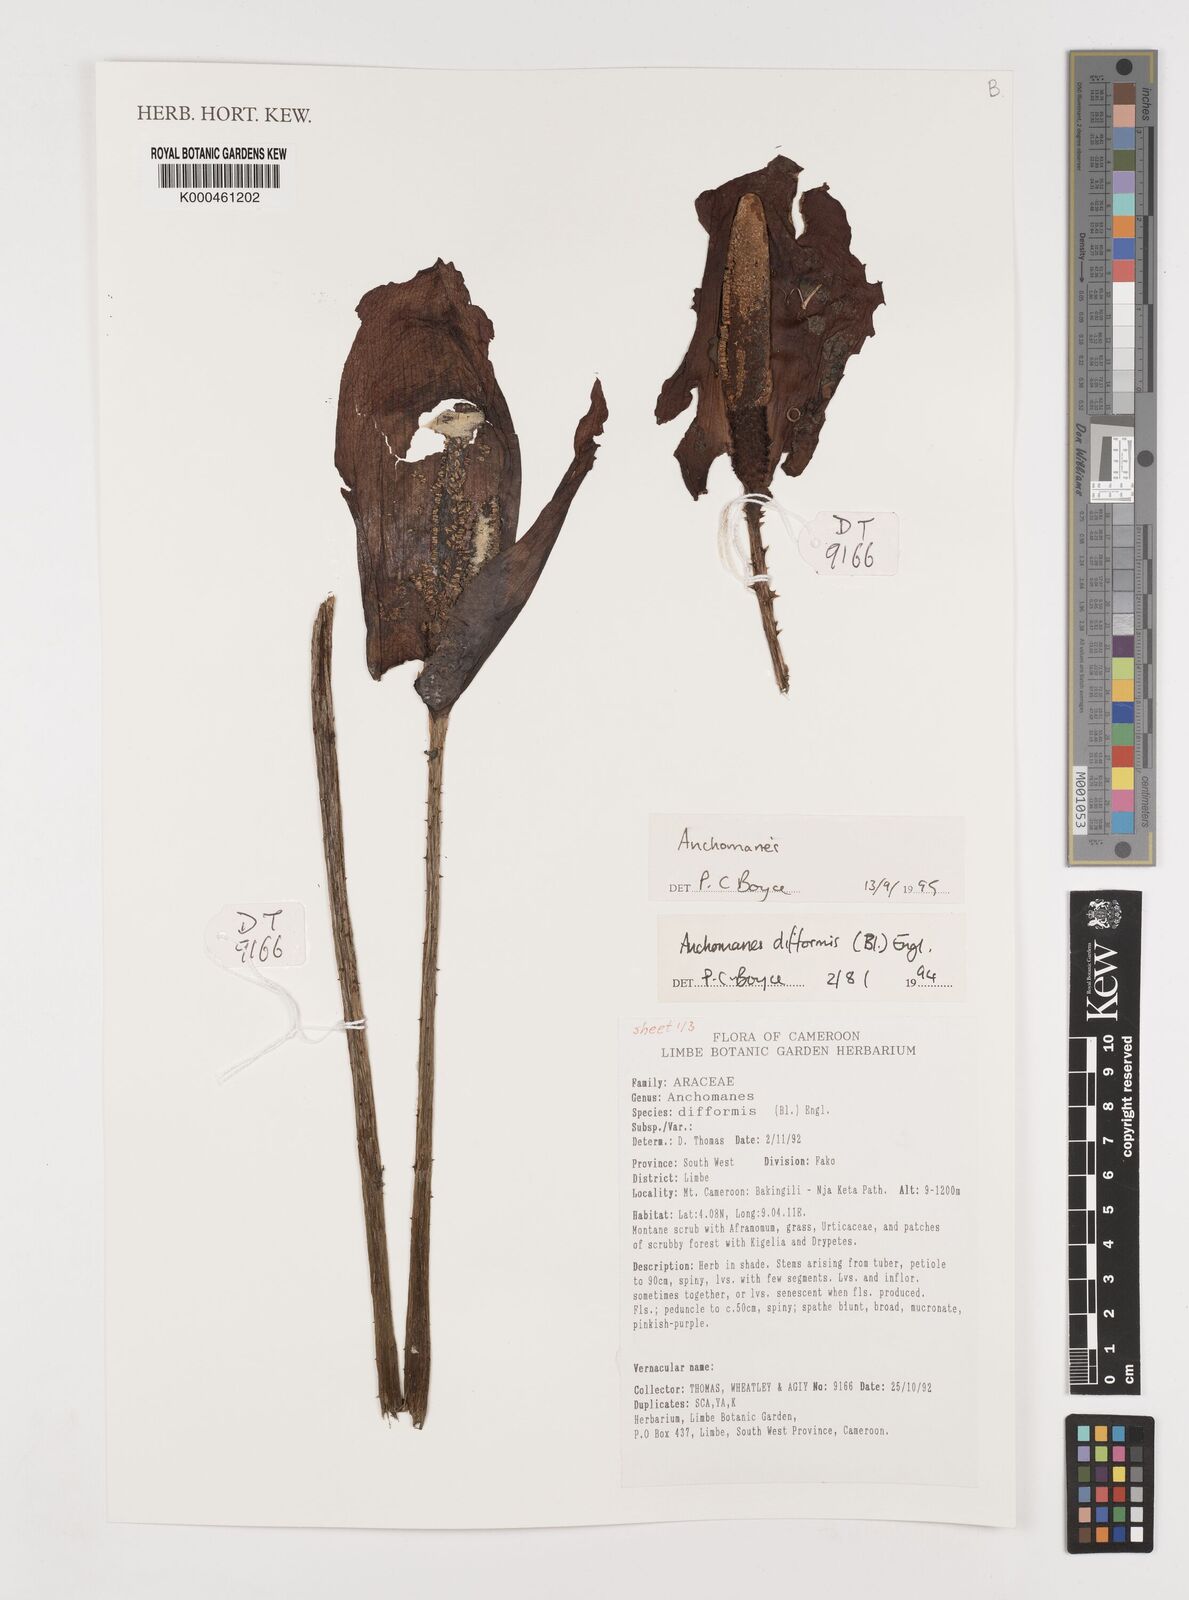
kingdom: Plantae
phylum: Tracheophyta
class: Liliopsida
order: Alismatales
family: Araceae
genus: Anchomanes
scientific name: Anchomanes
